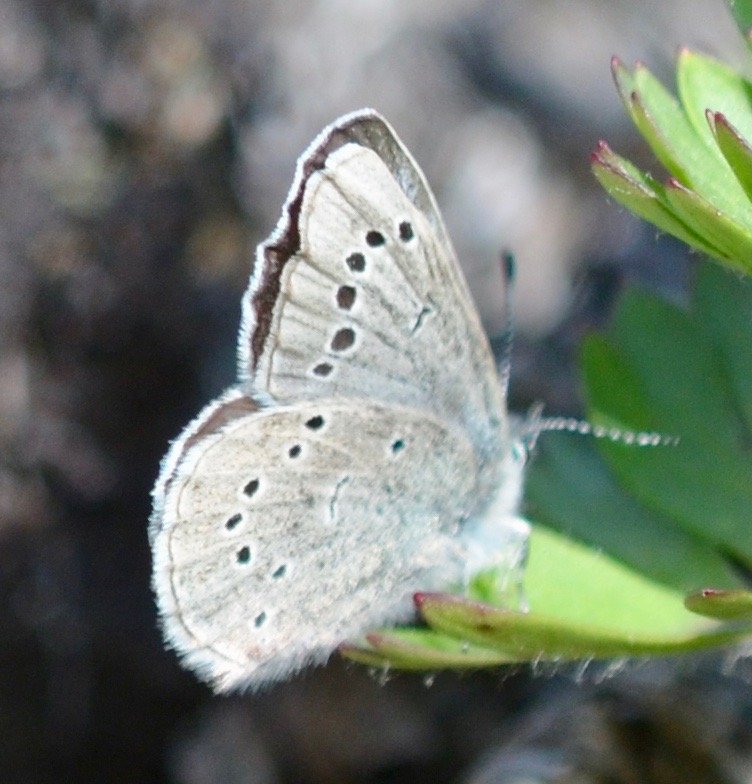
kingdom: Animalia
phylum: Arthropoda
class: Insecta
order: Lepidoptera
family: Lycaenidae
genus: Glaucopsyche
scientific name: Glaucopsyche lygdamus
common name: Silvery Blue
